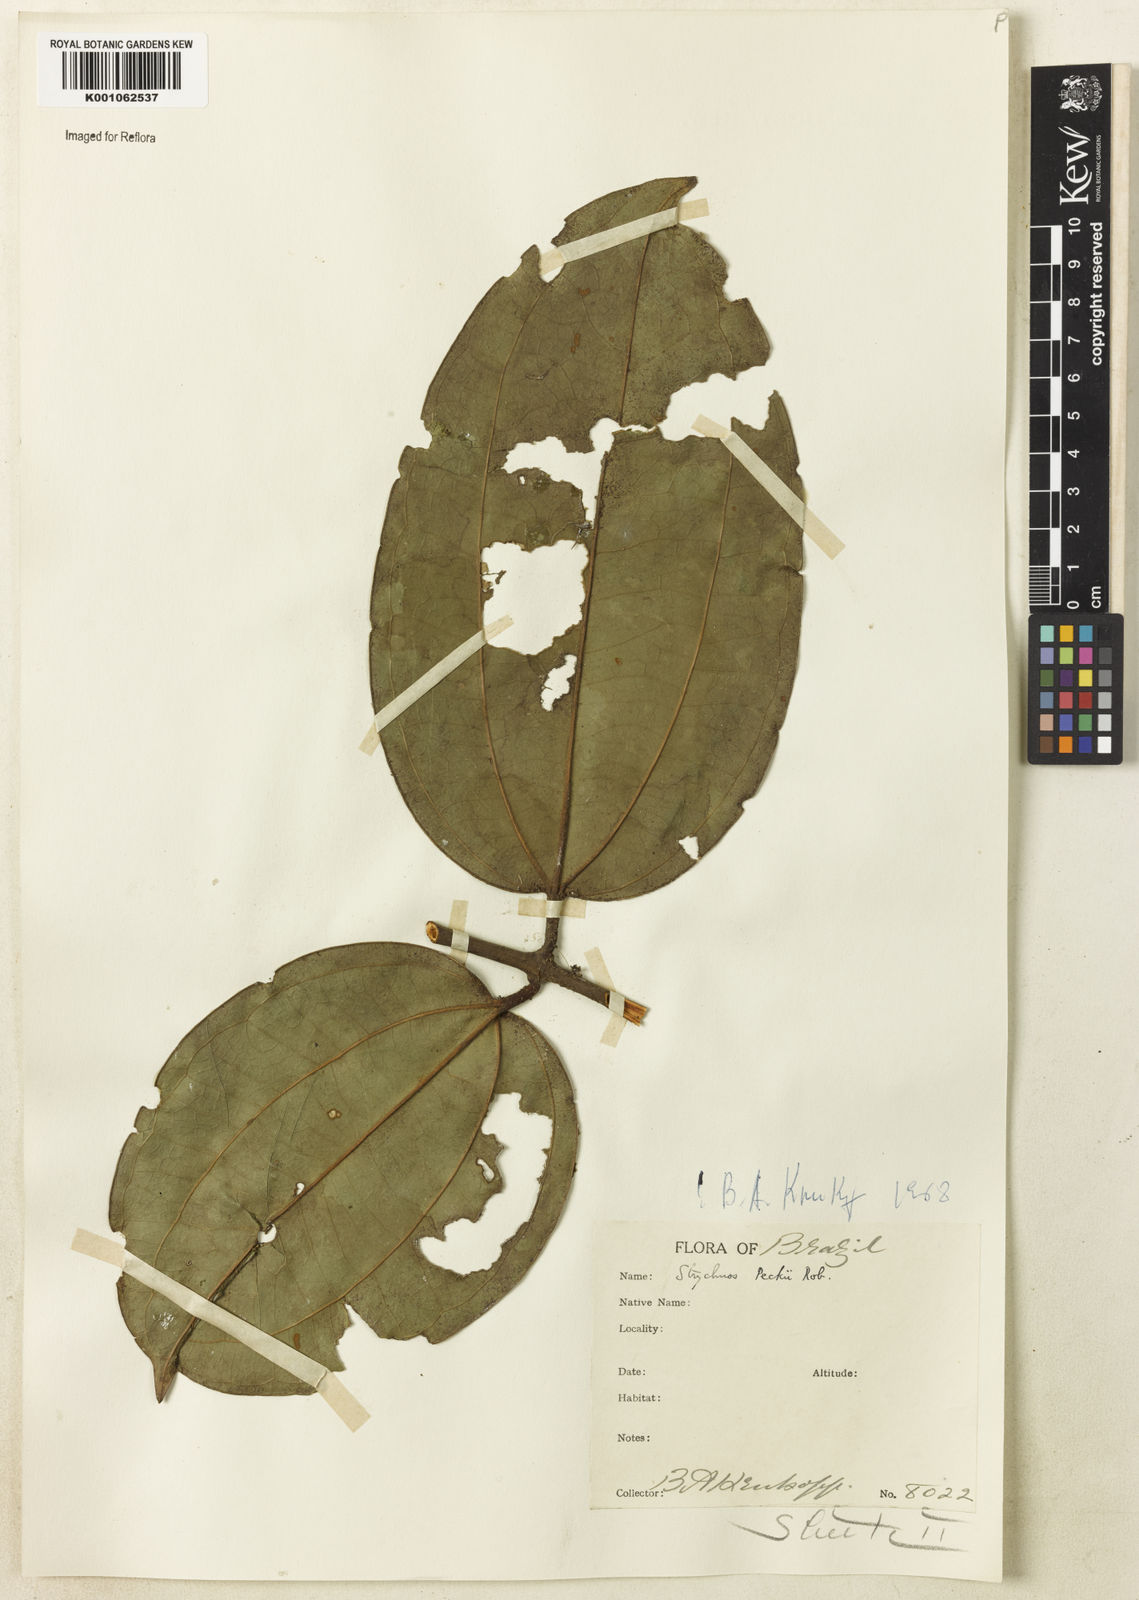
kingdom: Plantae
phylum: Tracheophyta
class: Magnoliopsida
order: Gentianales
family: Loganiaceae
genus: Strychnos
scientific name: Strychnos peckii
